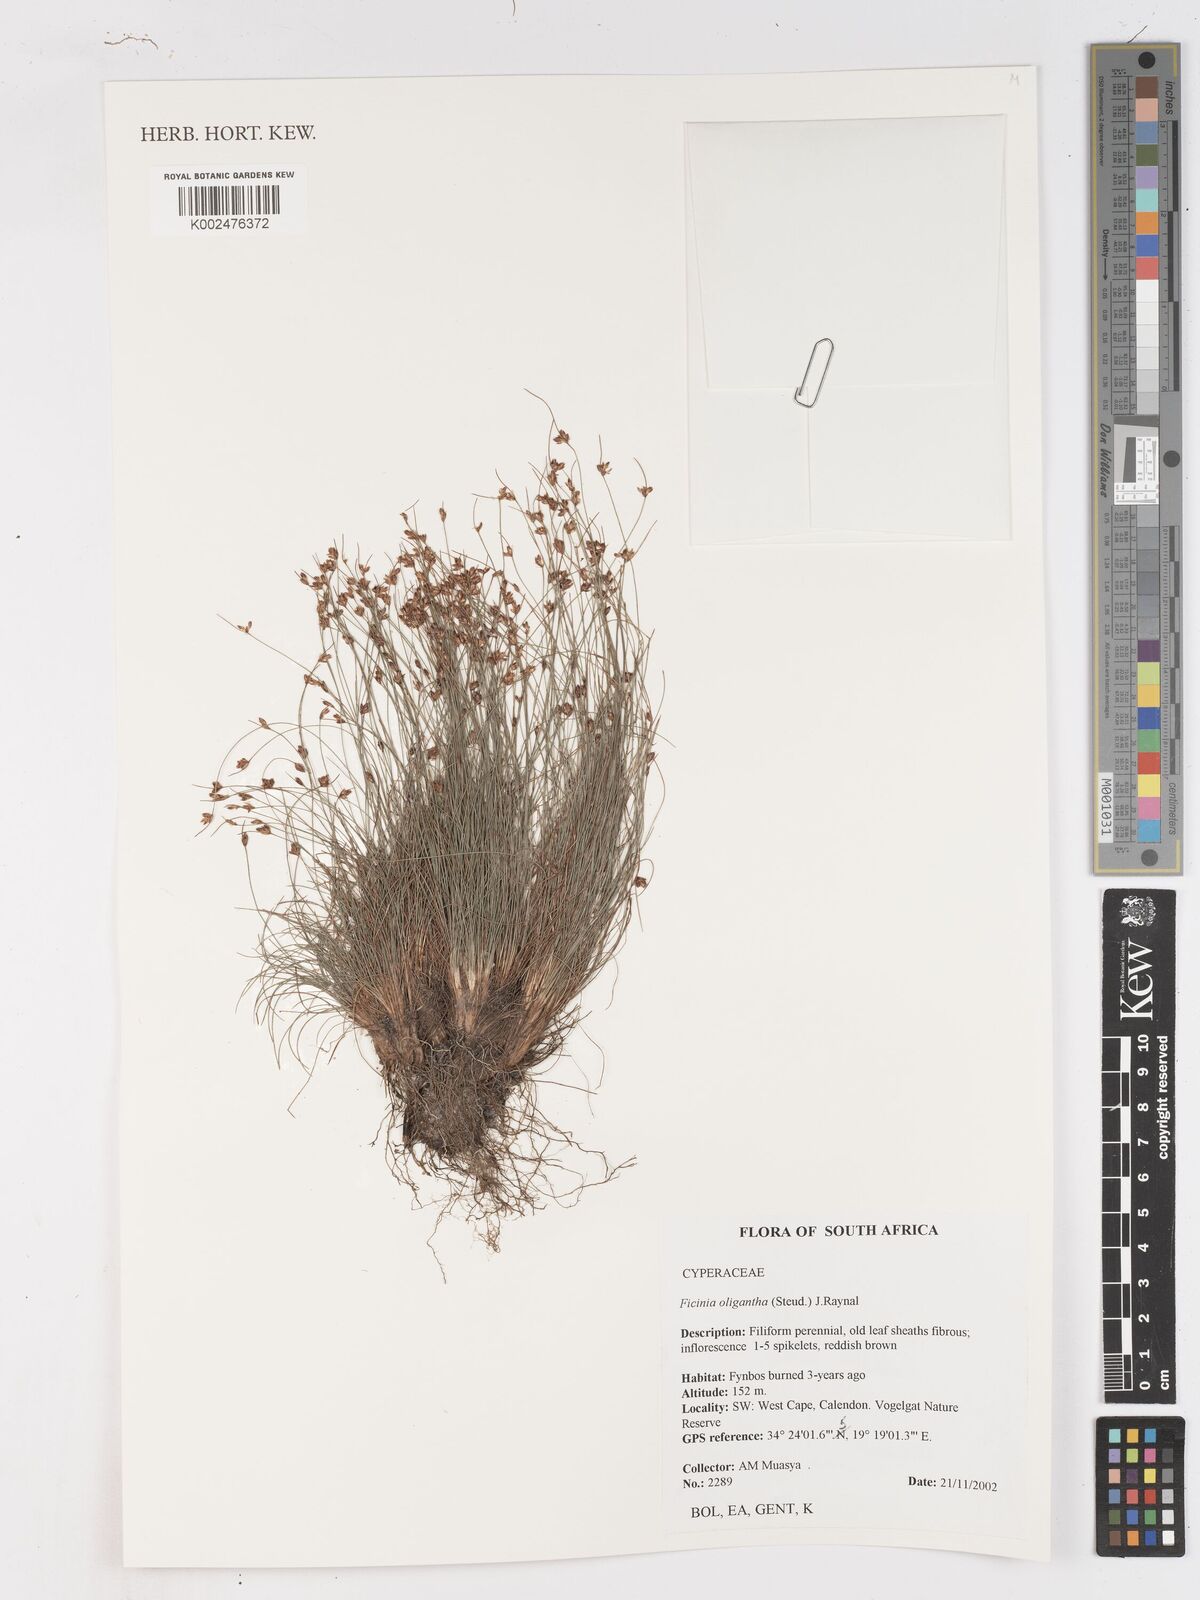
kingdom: Plantae
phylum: Tracheophyta
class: Liliopsida
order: Poales
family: Cyperaceae
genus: Ficinia
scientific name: Ficinia oligantha
